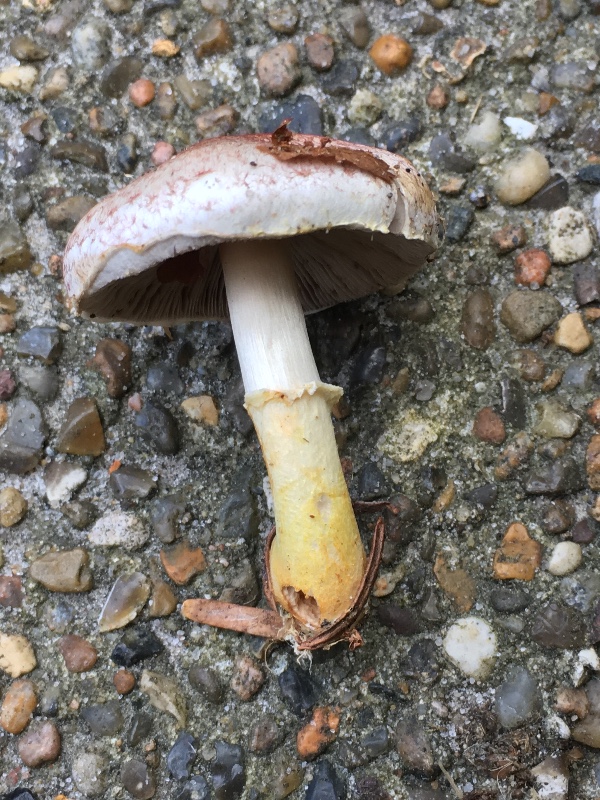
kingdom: Fungi
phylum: Basidiomycota
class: Agaricomycetes
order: Agaricales
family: Agaricaceae
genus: Agaricus
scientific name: Agaricus dulcidulus
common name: blegrød champignon
